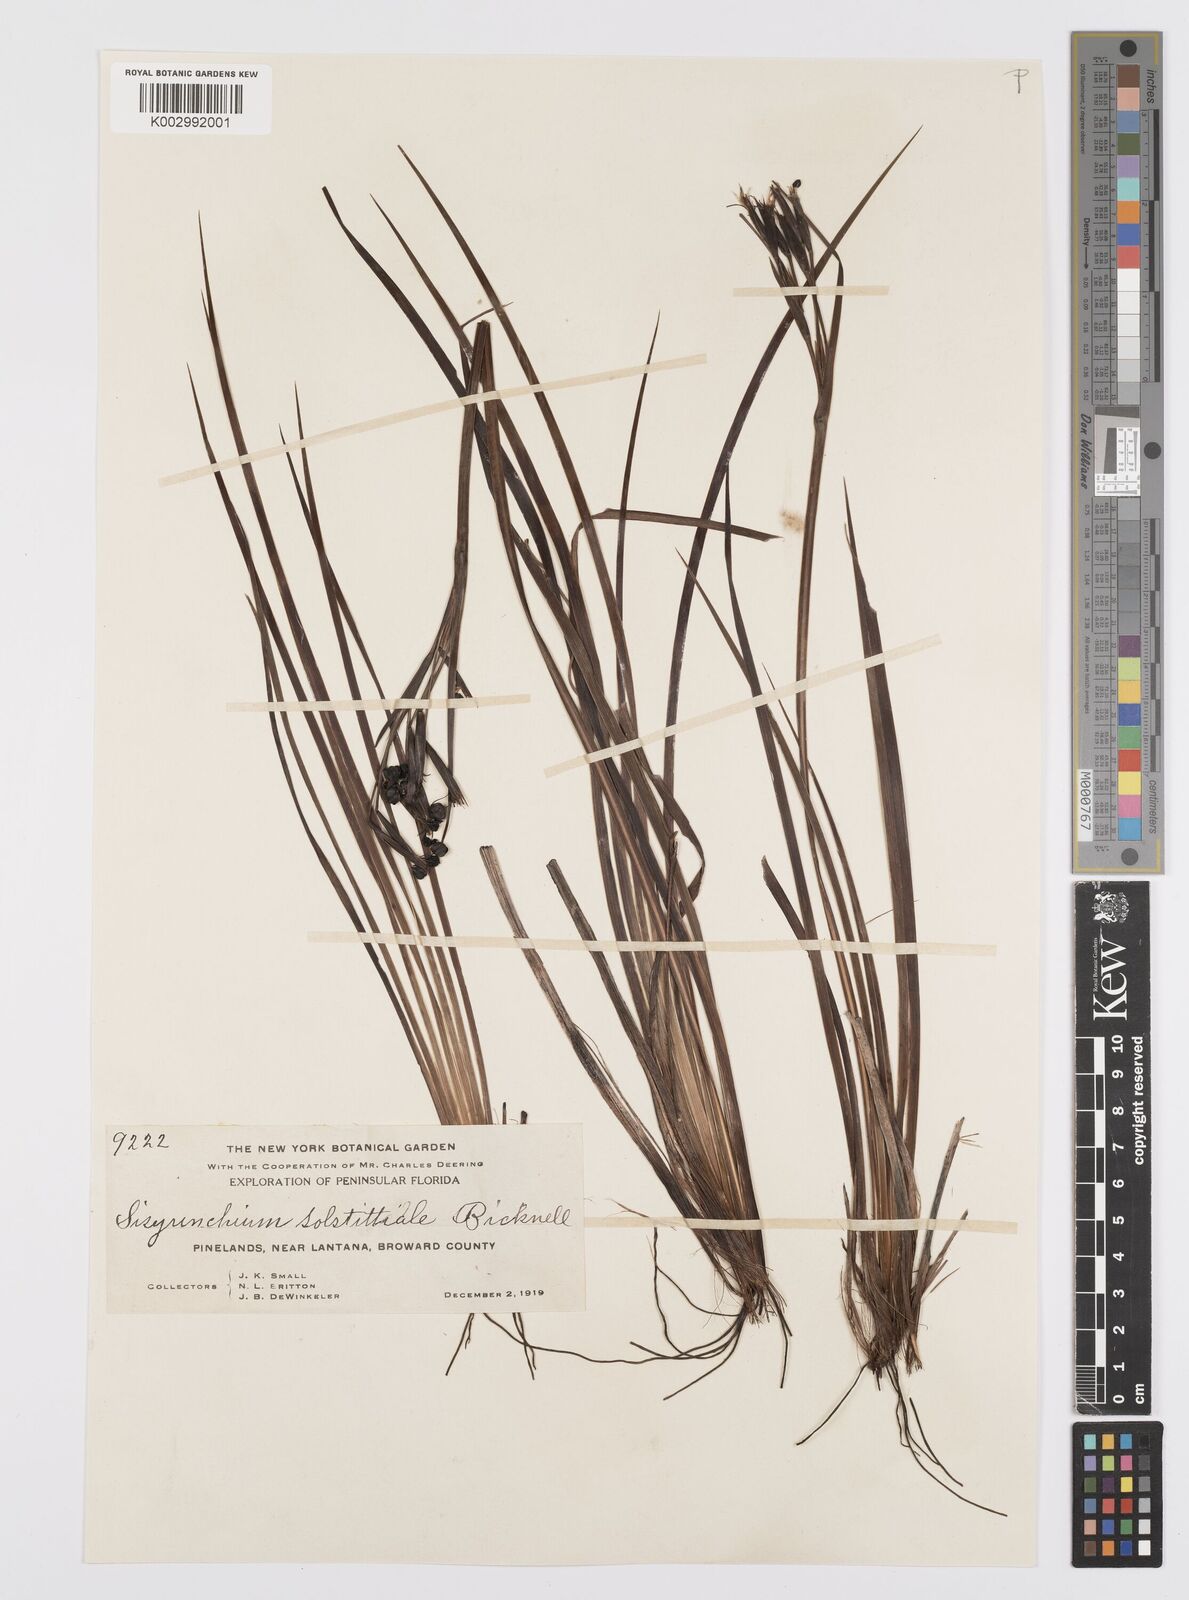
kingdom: Plantae
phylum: Tracheophyta
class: Liliopsida
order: Asparagales
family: Iridaceae
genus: Sisyrinchium
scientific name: Sisyrinchium xerophyllum
